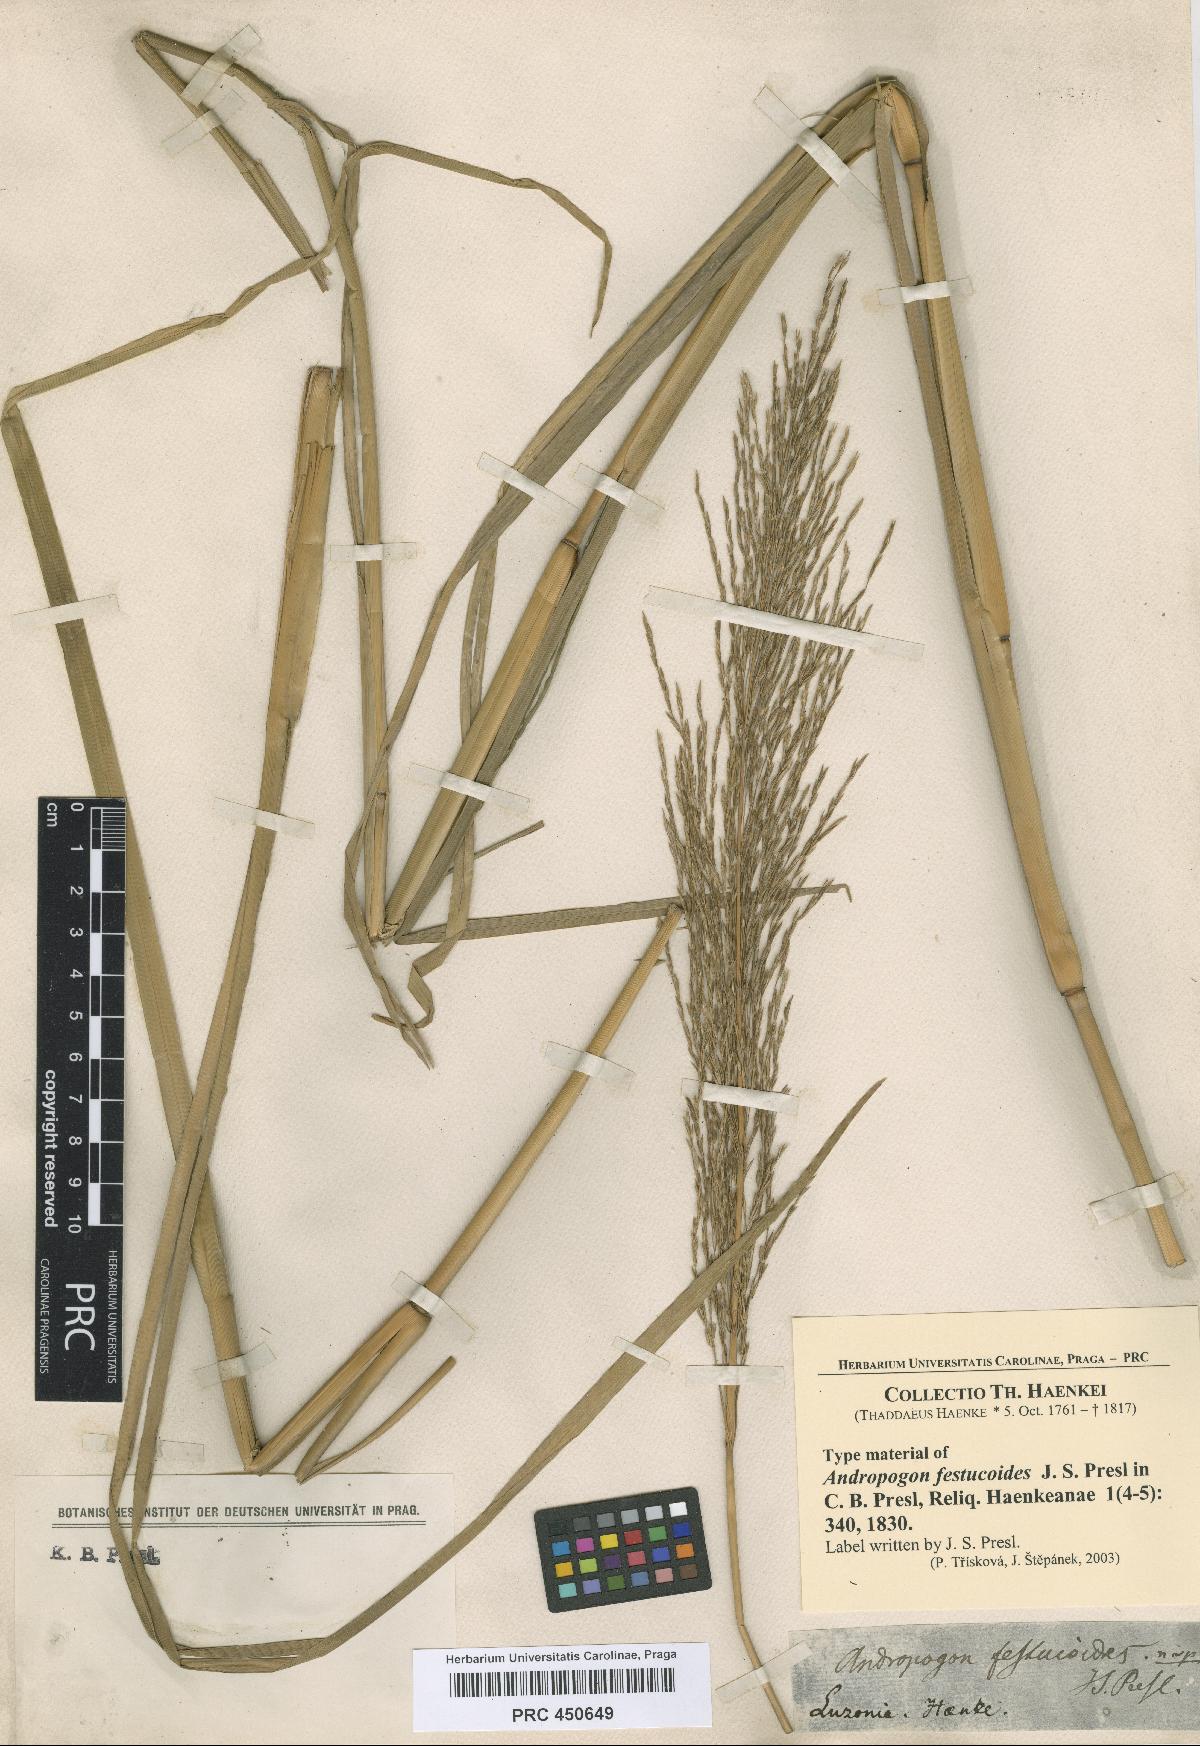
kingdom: Plantae
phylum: Tracheophyta
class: Liliopsida
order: Poales
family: Poaceae
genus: Chrysopogon
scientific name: Chrysopogon festucoides
